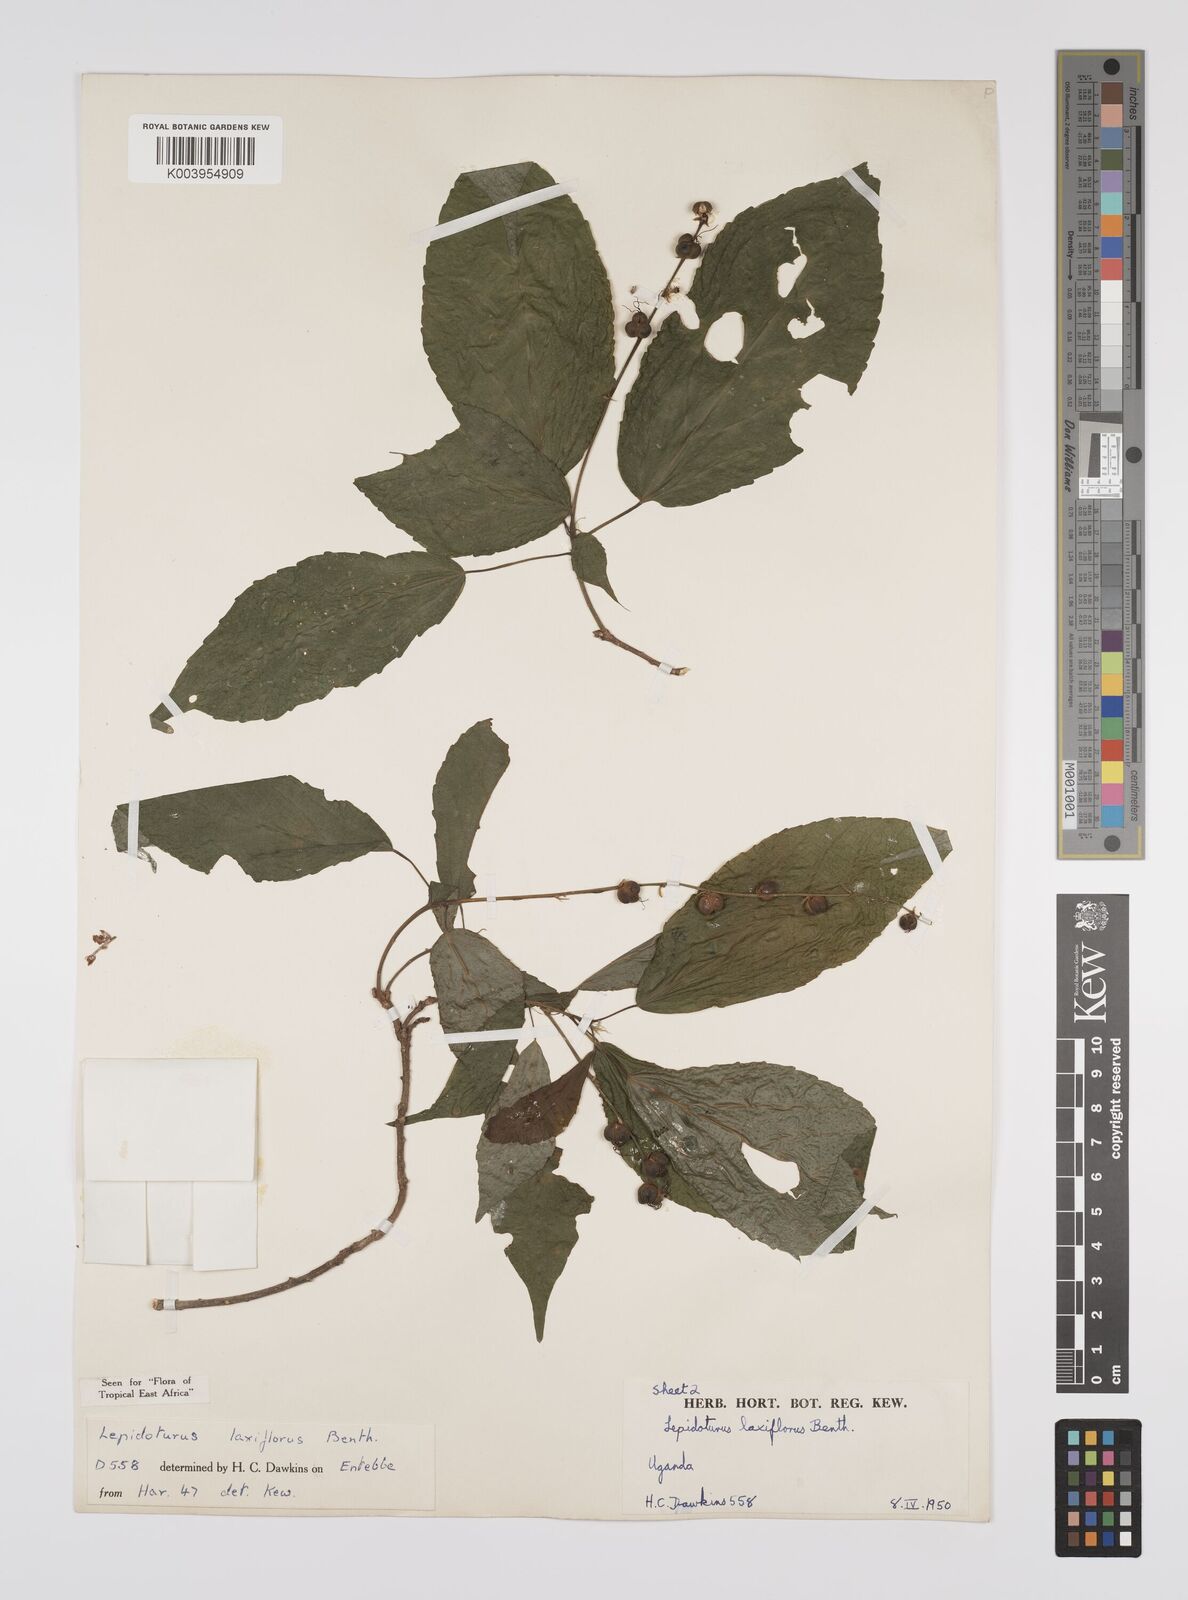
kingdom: Plantae
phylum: Tracheophyta
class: Magnoliopsida
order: Malpighiales
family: Euphorbiaceae
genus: Alchornea
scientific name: Alchornea laxiflora
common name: Lowveld bead-string
